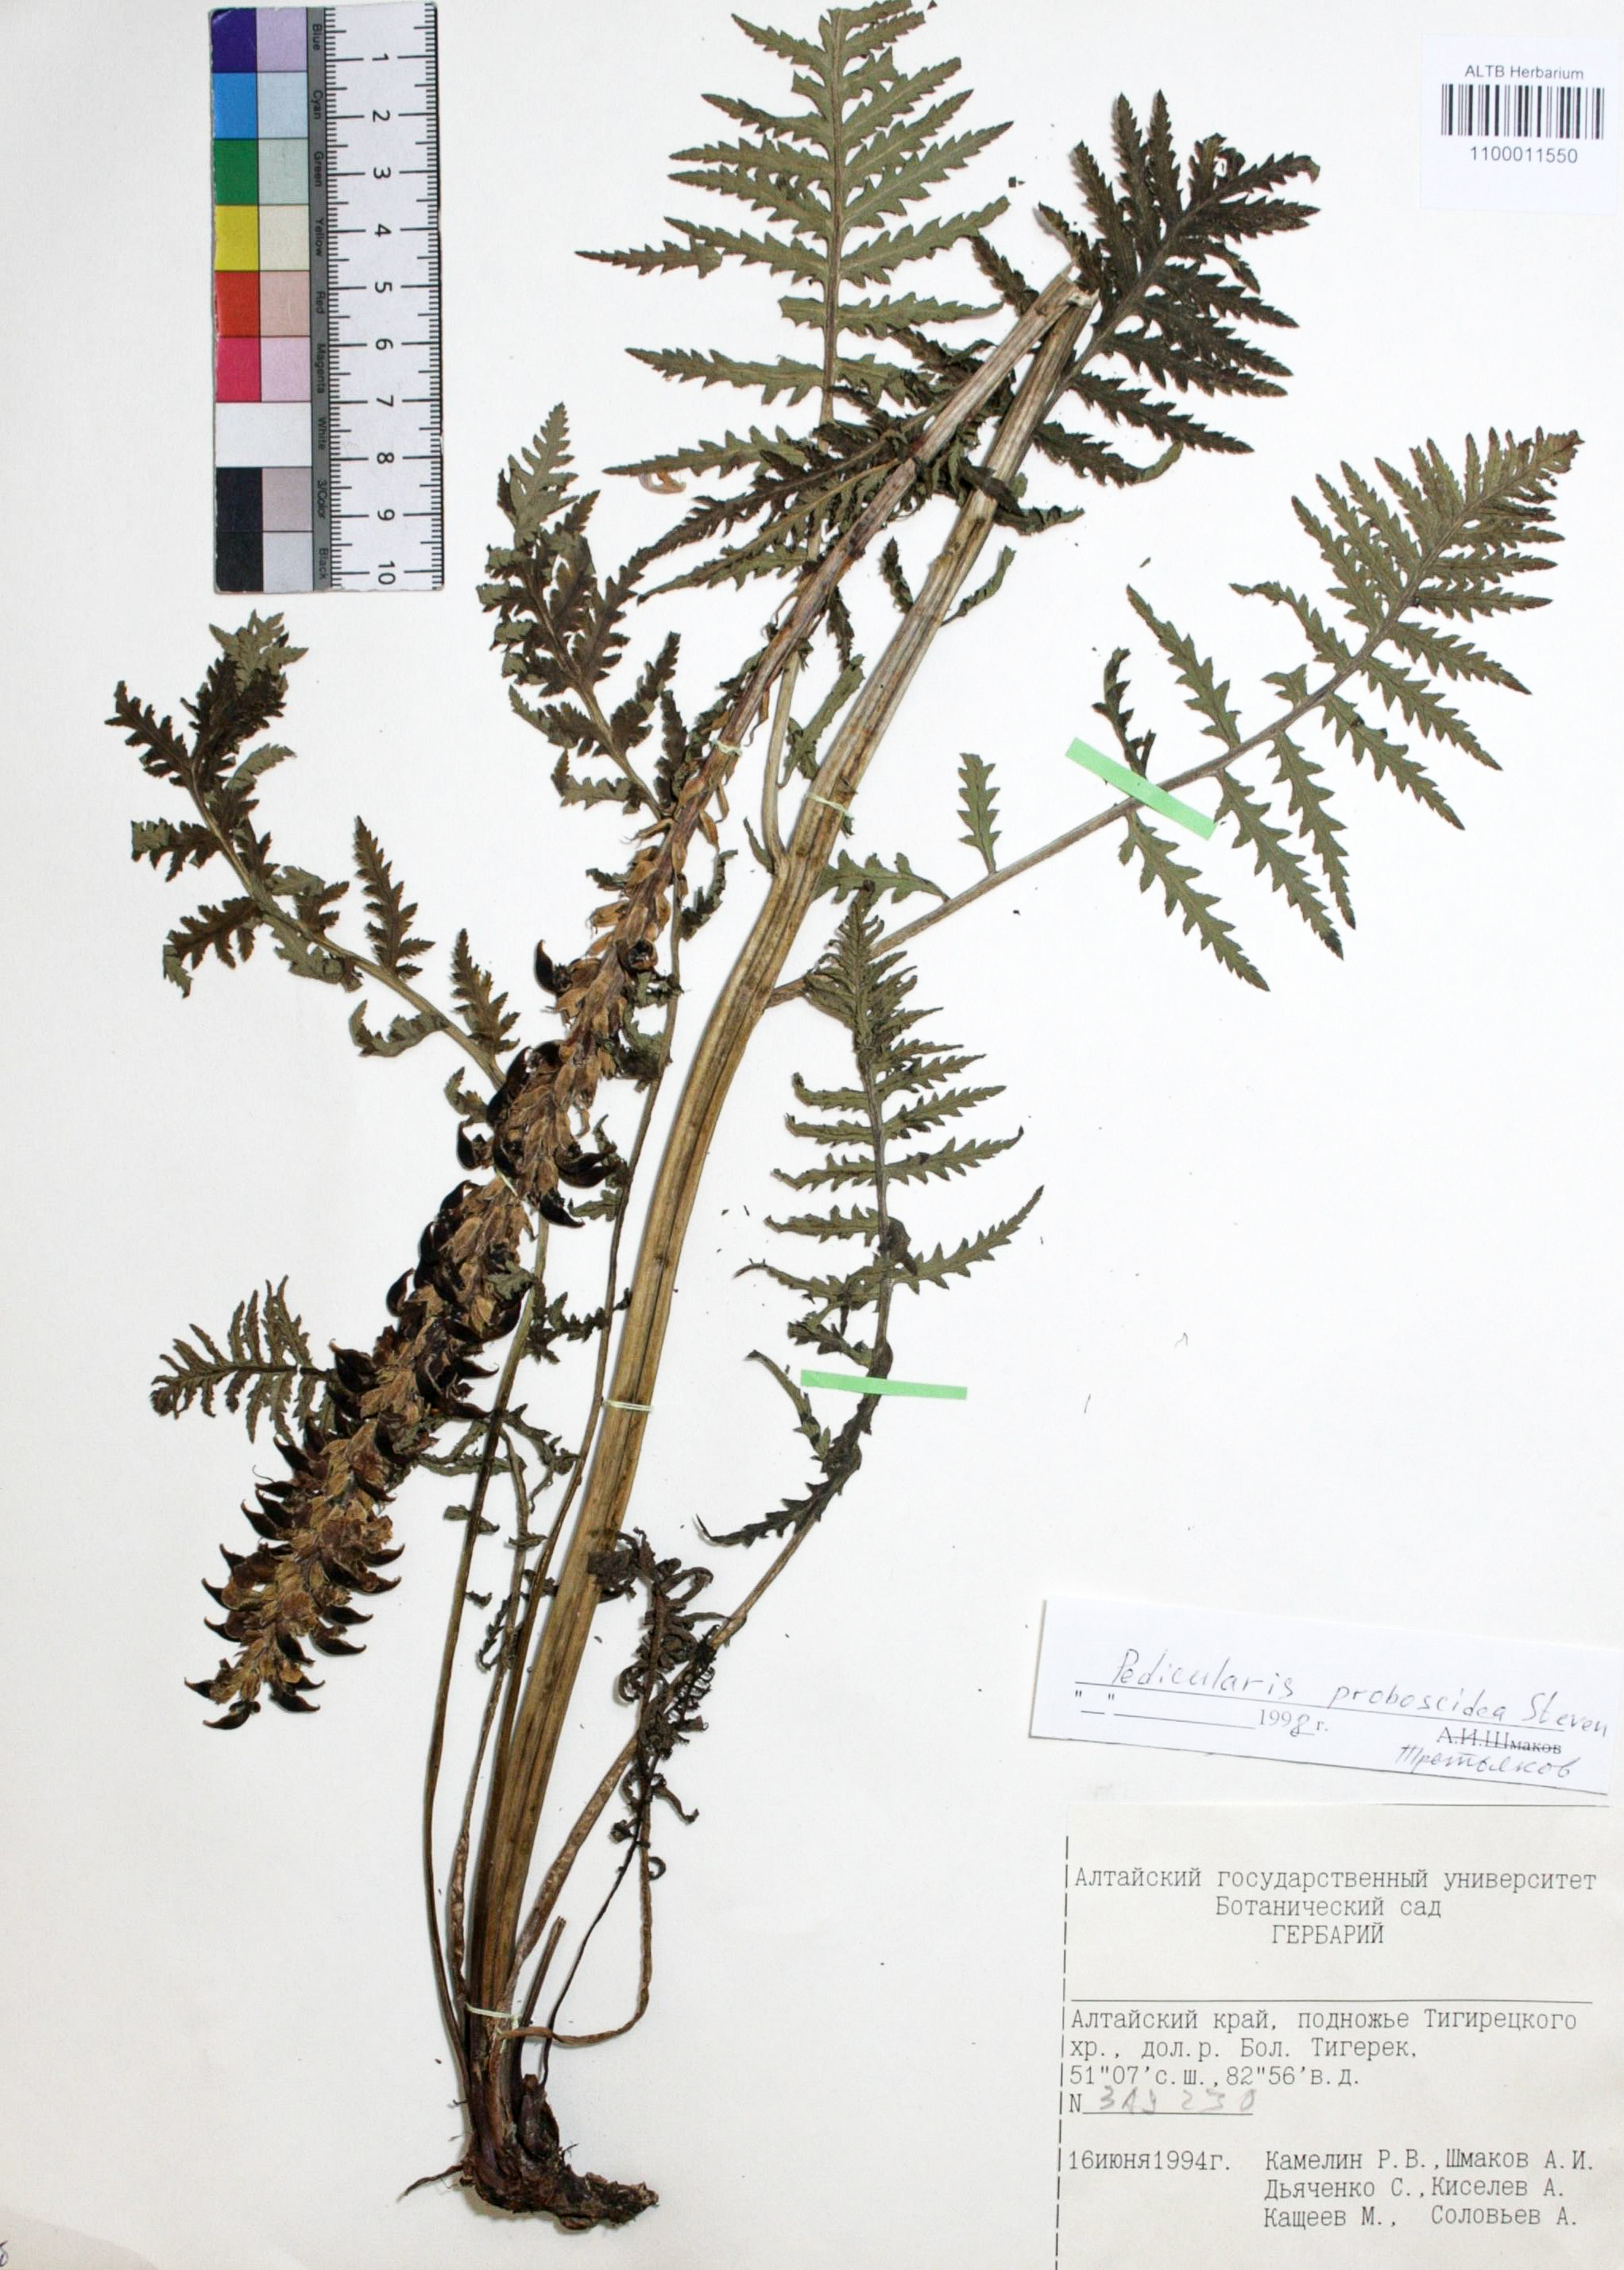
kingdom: Plantae
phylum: Tracheophyta
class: Magnoliopsida
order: Lamiales
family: Orobanchaceae
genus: Pedicularis
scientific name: Pedicularis proboscidea
